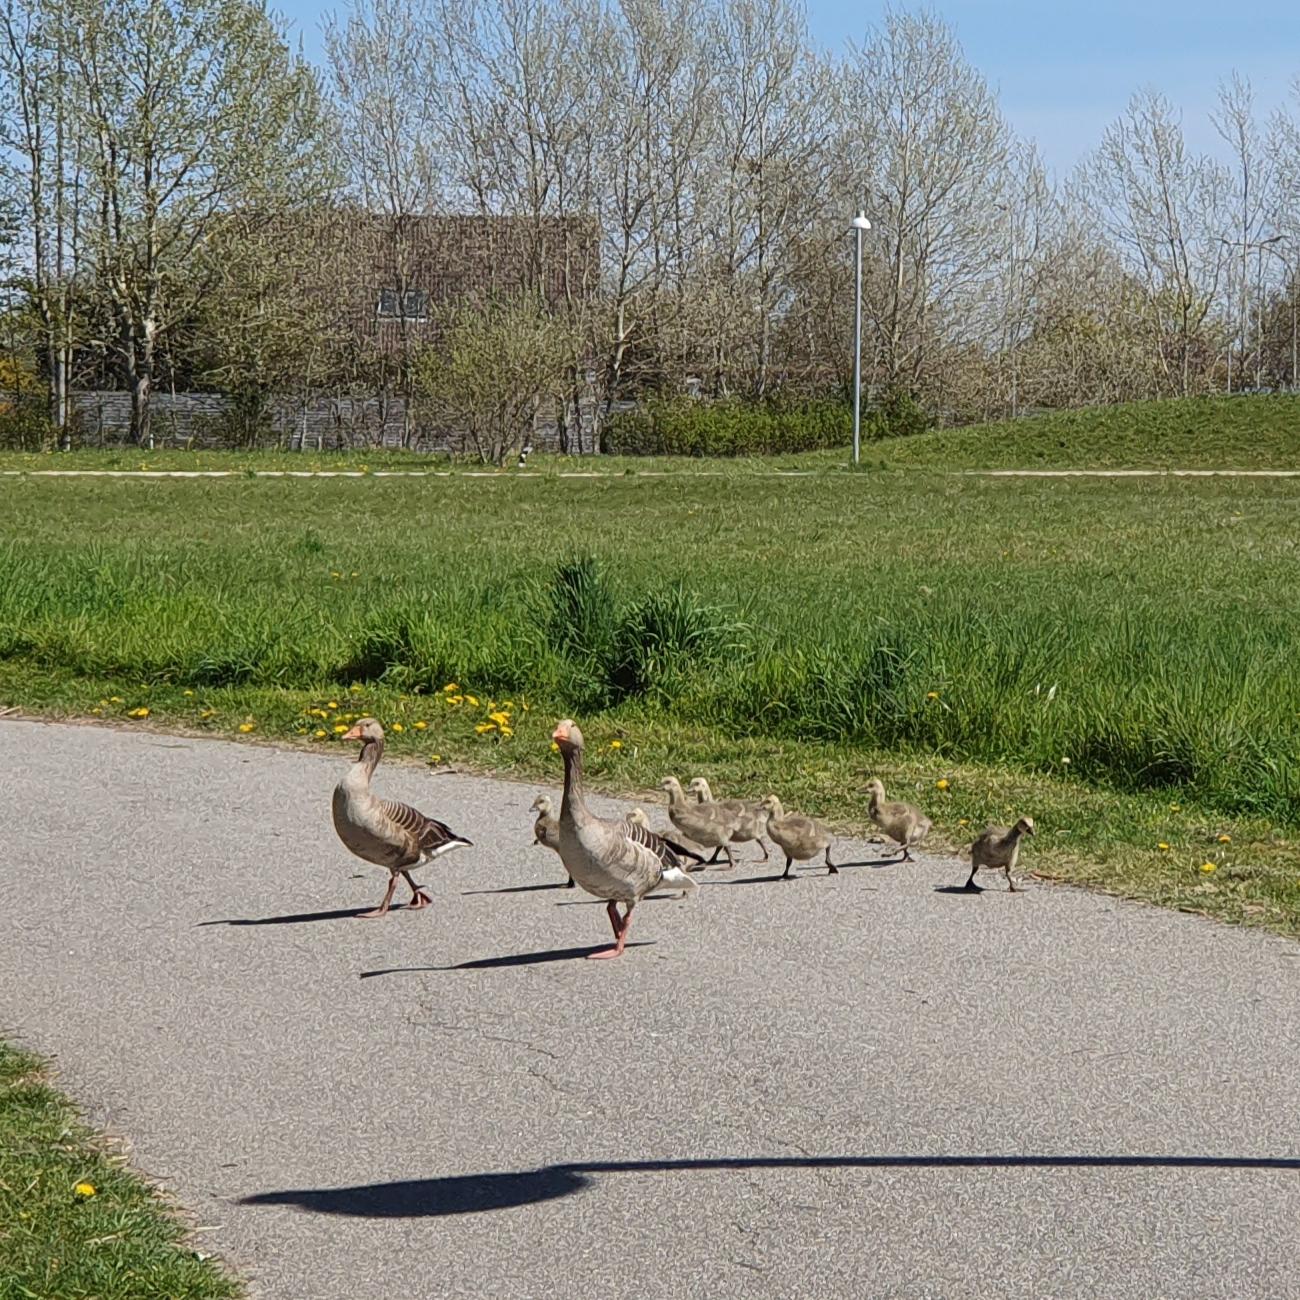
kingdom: Animalia
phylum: Chordata
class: Aves
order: Anseriformes
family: Anatidae
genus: Anser
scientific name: Anser anser
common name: Grågås
